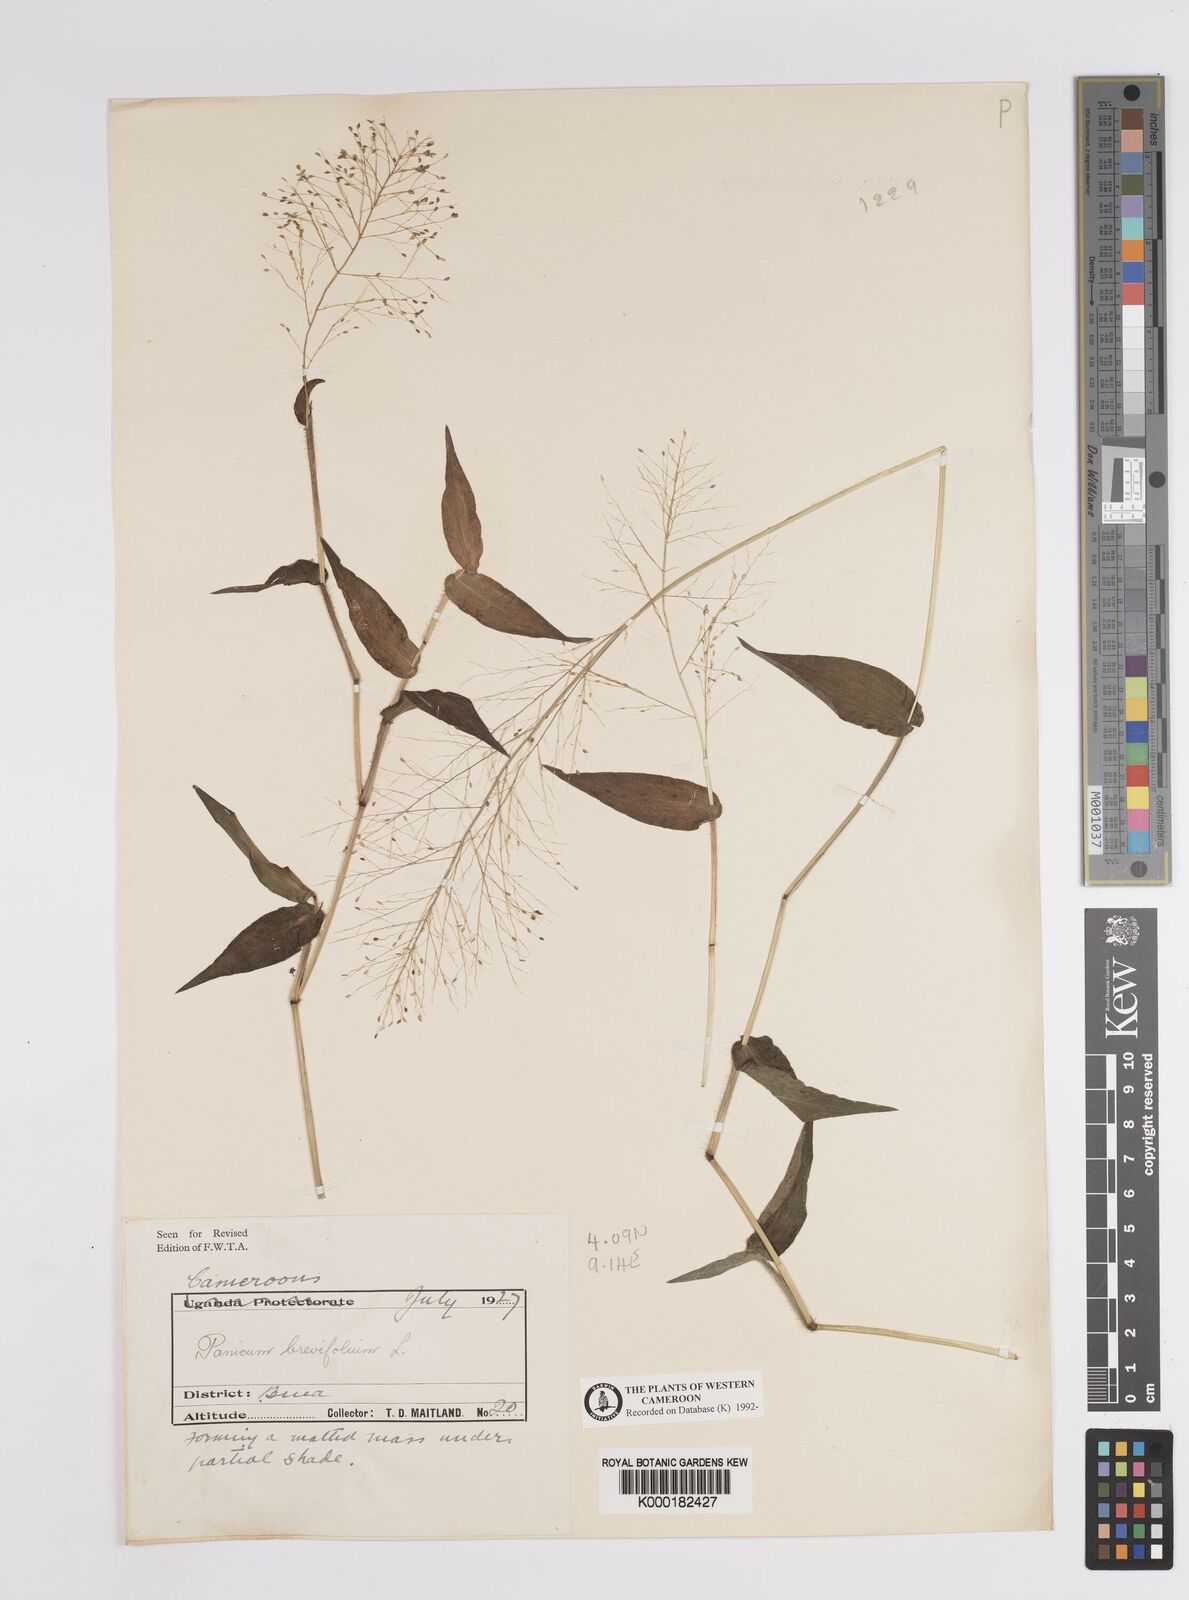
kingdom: Plantae
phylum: Tracheophyta
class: Liliopsida
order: Poales
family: Poaceae
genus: Panicum
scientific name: Panicum brevifolium
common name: Shortleaf panic grass
